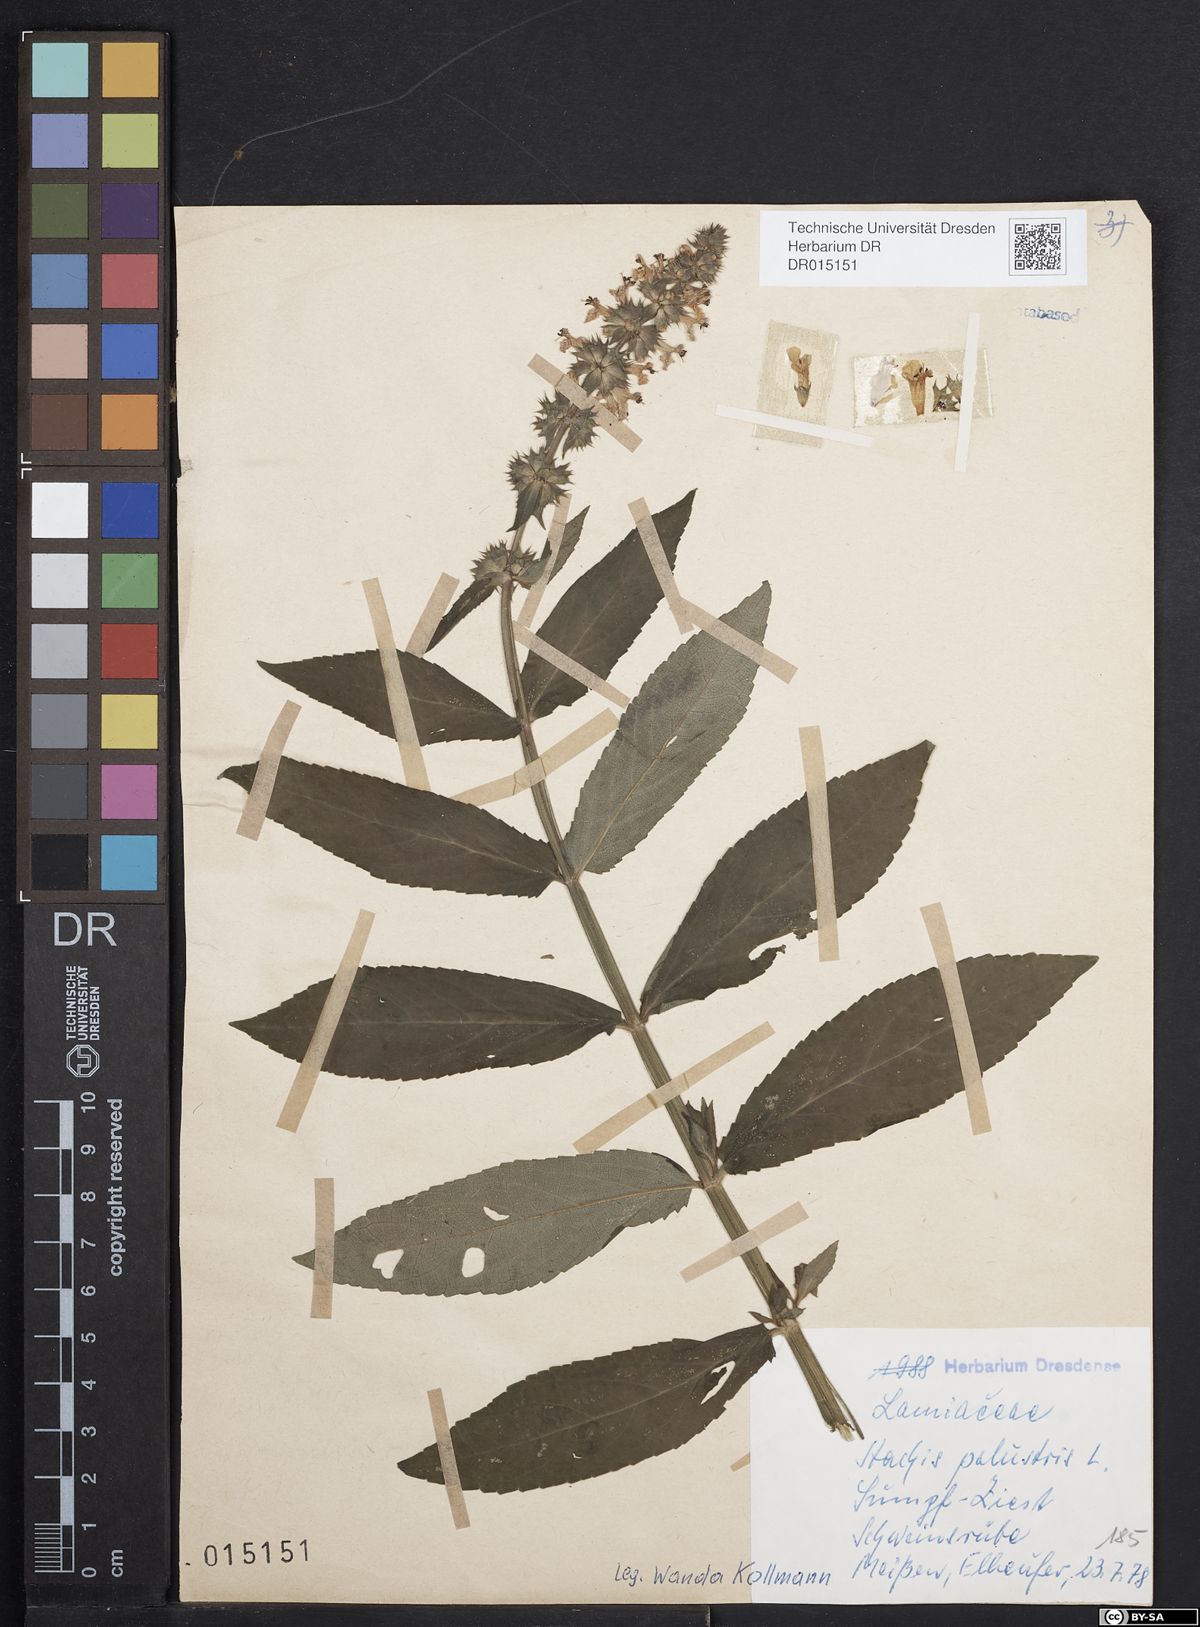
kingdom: Plantae
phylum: Tracheophyta
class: Magnoliopsida
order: Lamiales
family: Lamiaceae
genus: Stachys
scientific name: Stachys palustris
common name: Marsh woundwort
